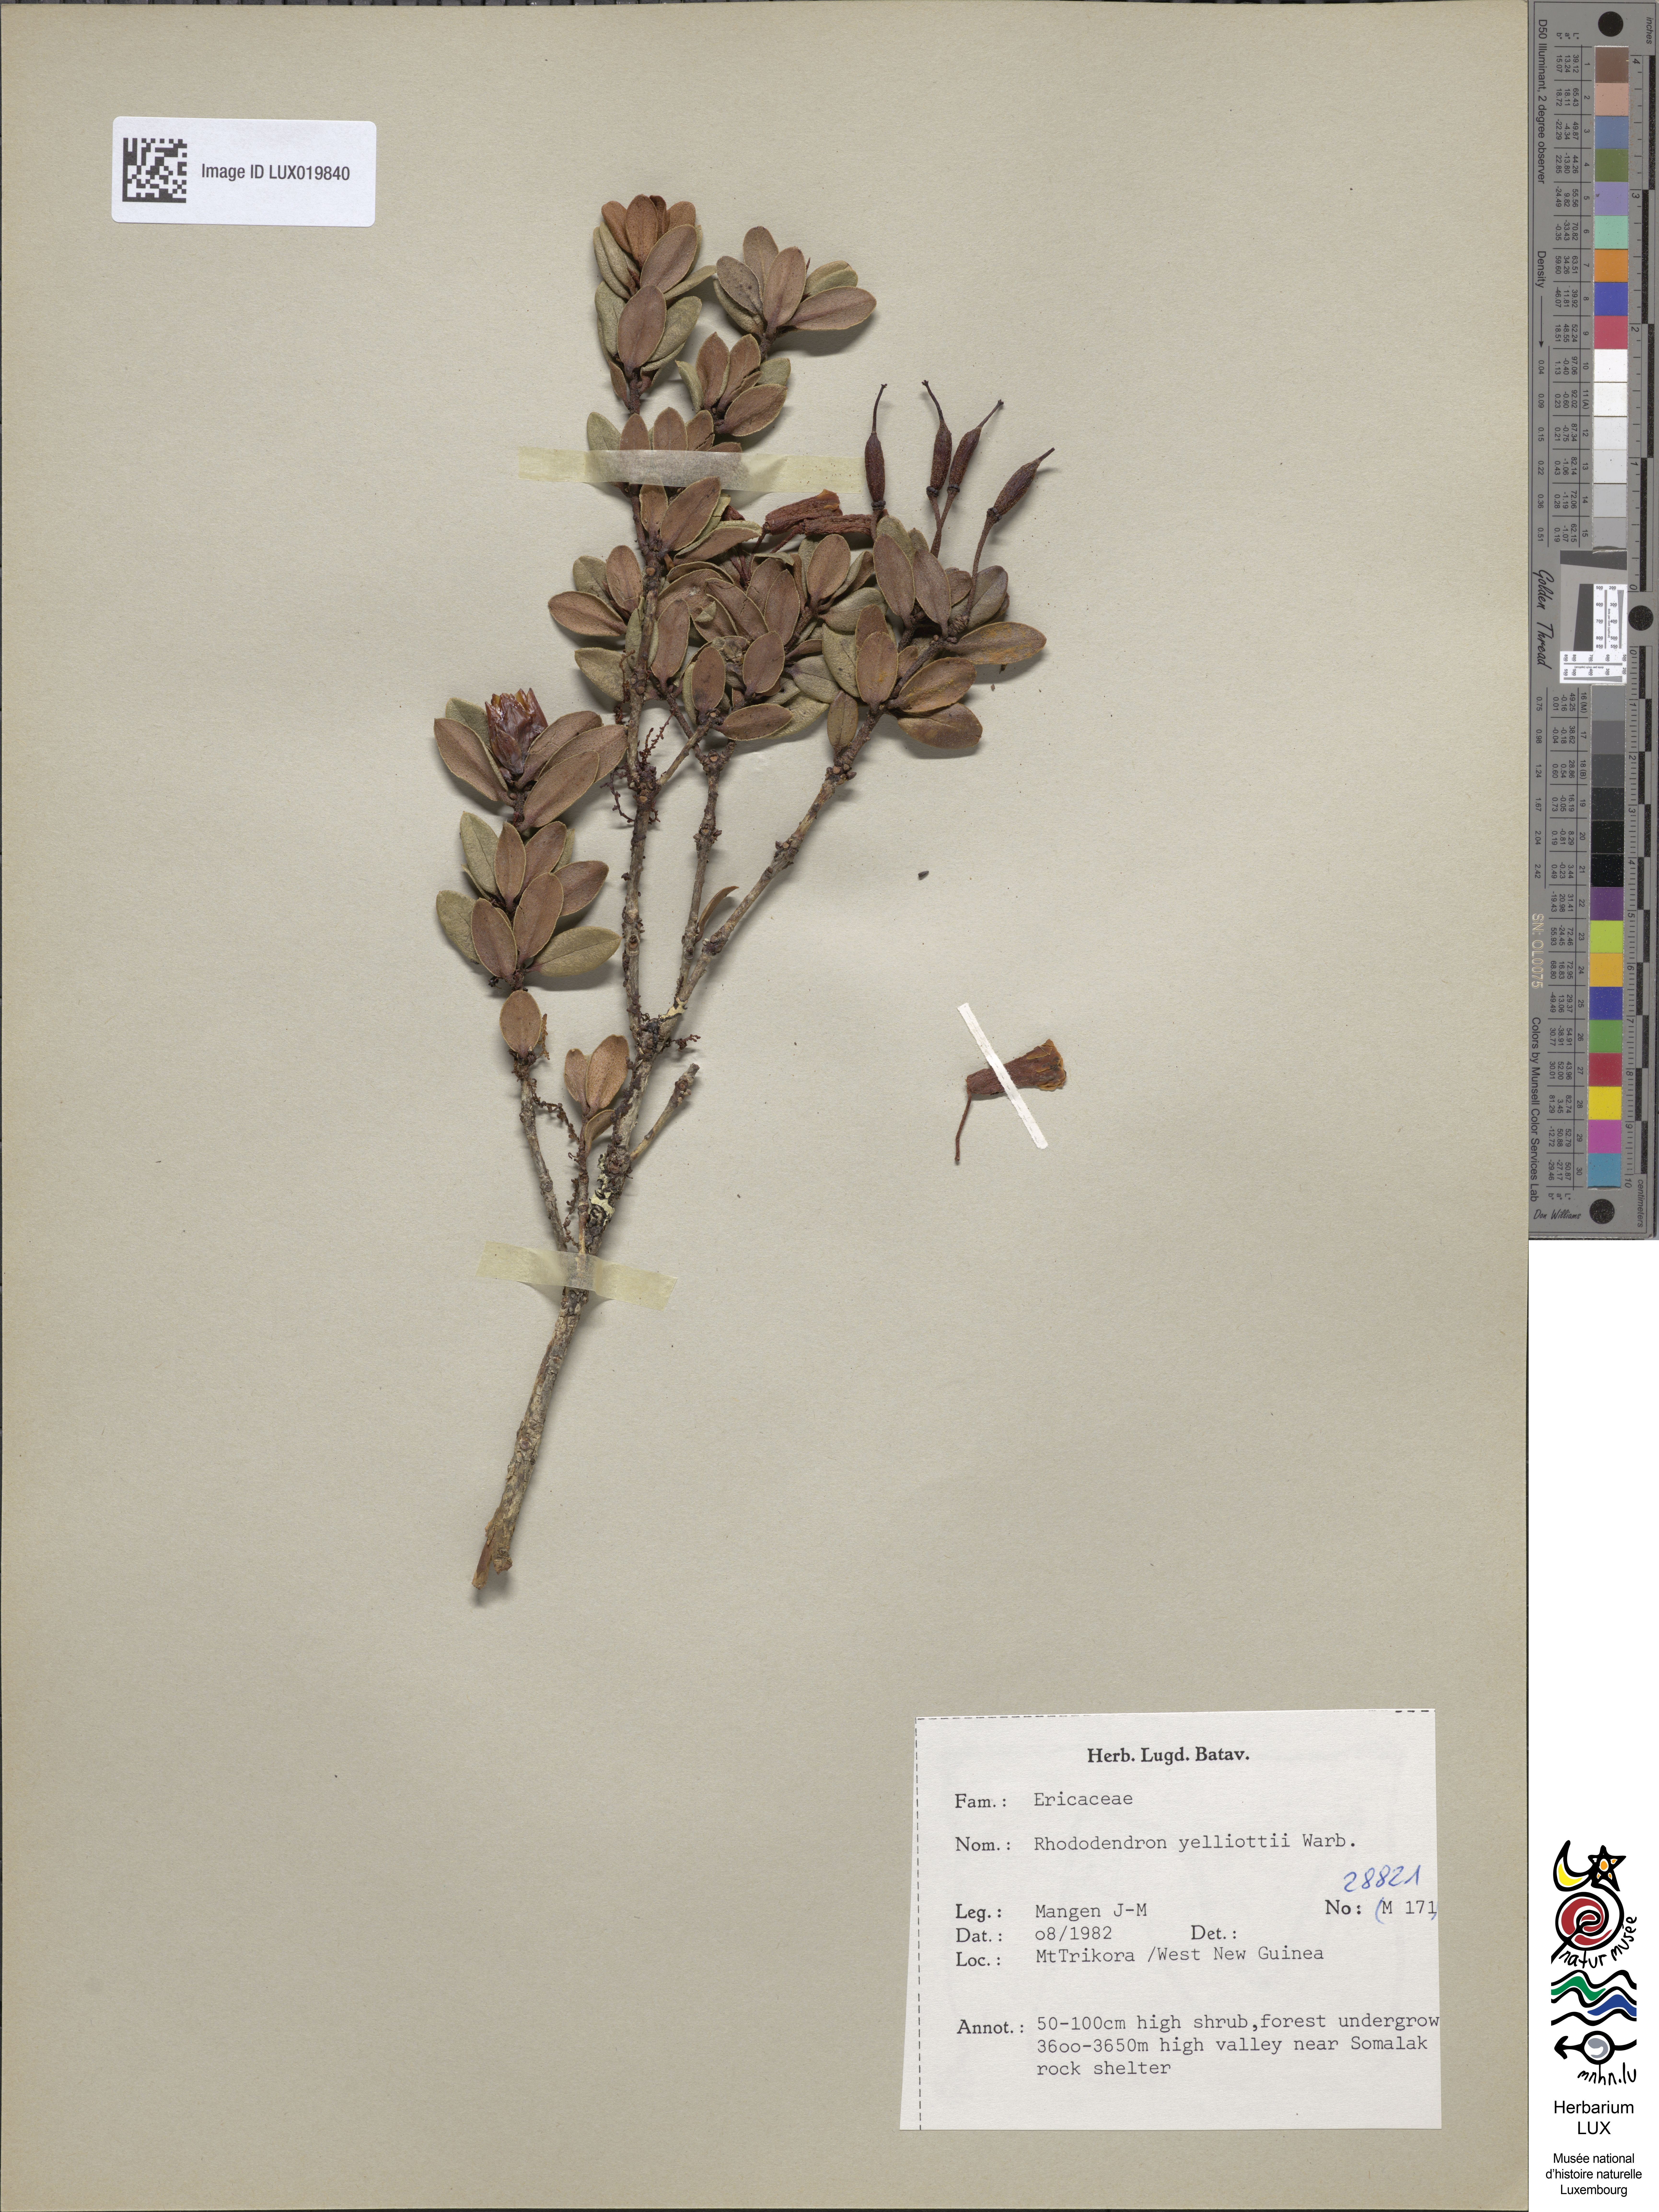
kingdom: Plantae
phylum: Tracheophyta
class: Magnoliopsida
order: Ericales
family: Ericaceae
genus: Rhododendron
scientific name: Rhododendron yelliottii
